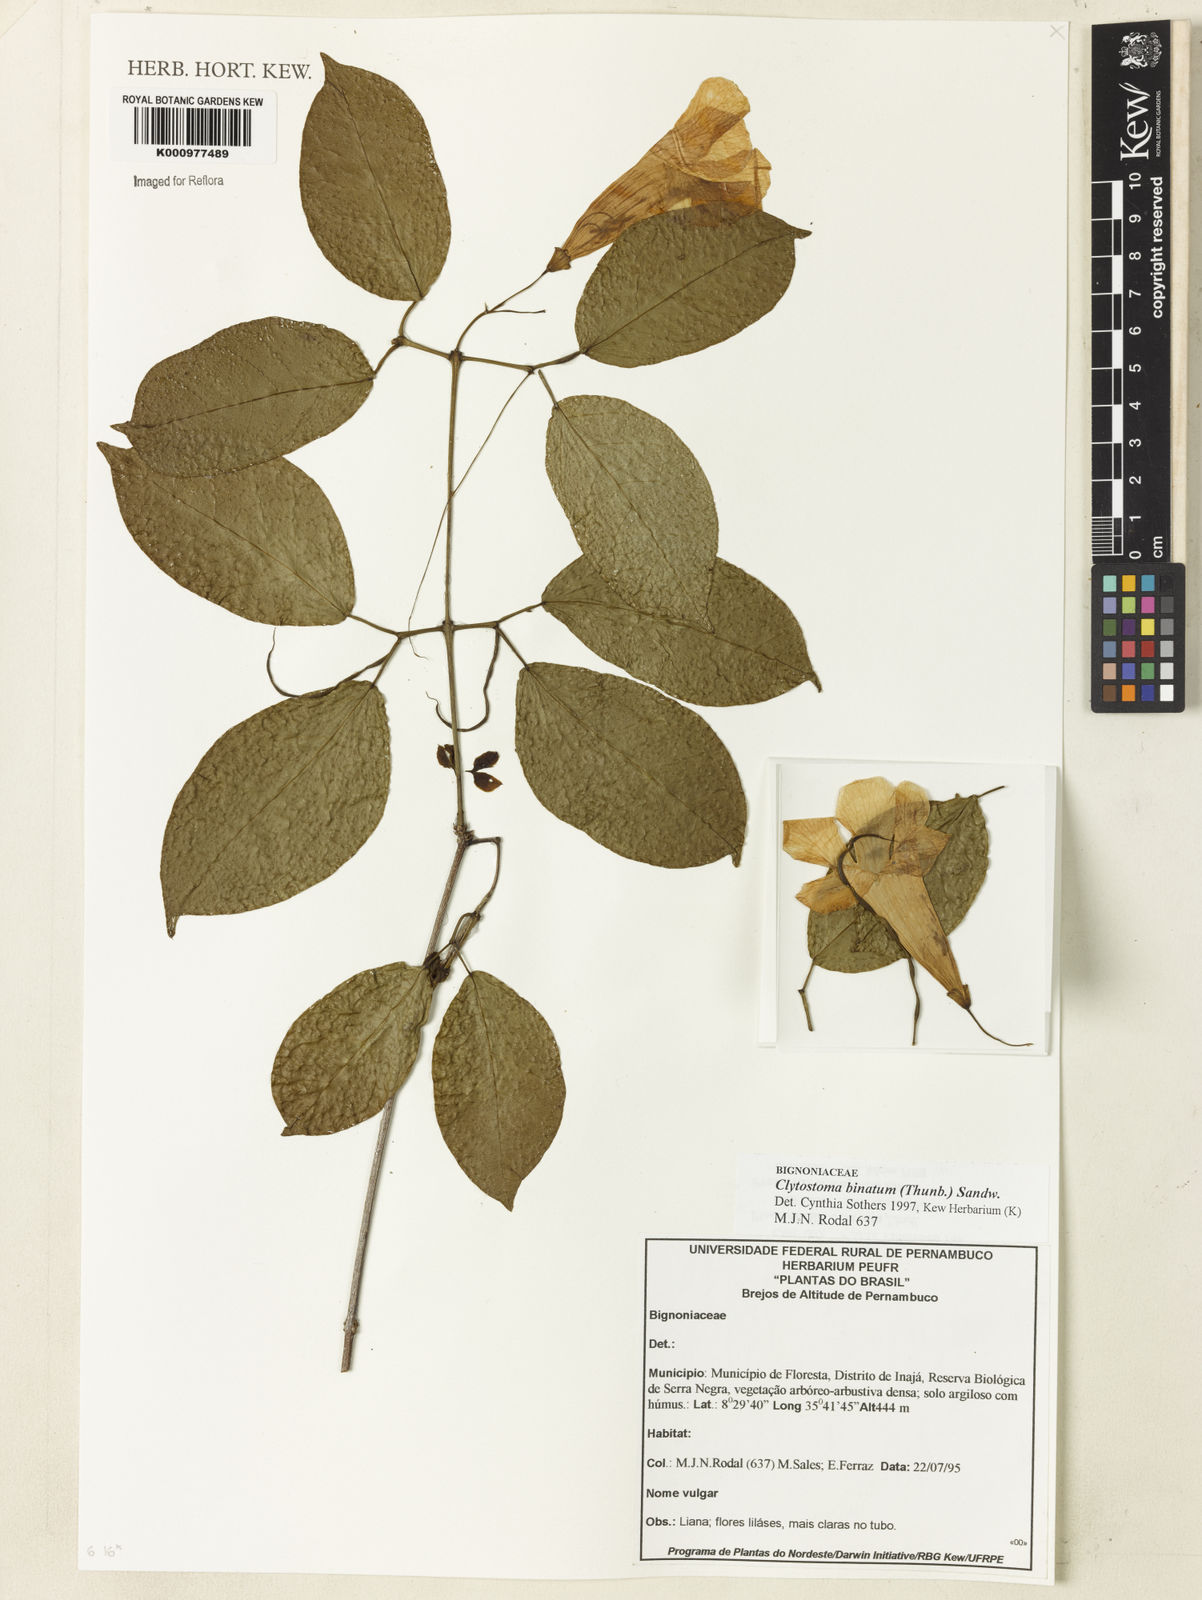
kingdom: Plantae
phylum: Tracheophyta
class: Magnoliopsida
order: Lamiales
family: Bignoniaceae
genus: Bignonia
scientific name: Bignonia binata
